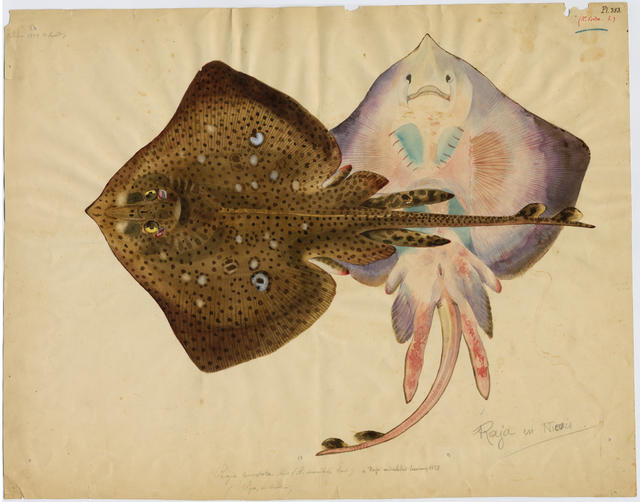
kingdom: Animalia
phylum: Chordata
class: Elasmobranchii
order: Rajiformes
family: Rajidae
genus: Raja
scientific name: Raja brachyura
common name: Blonde ray
